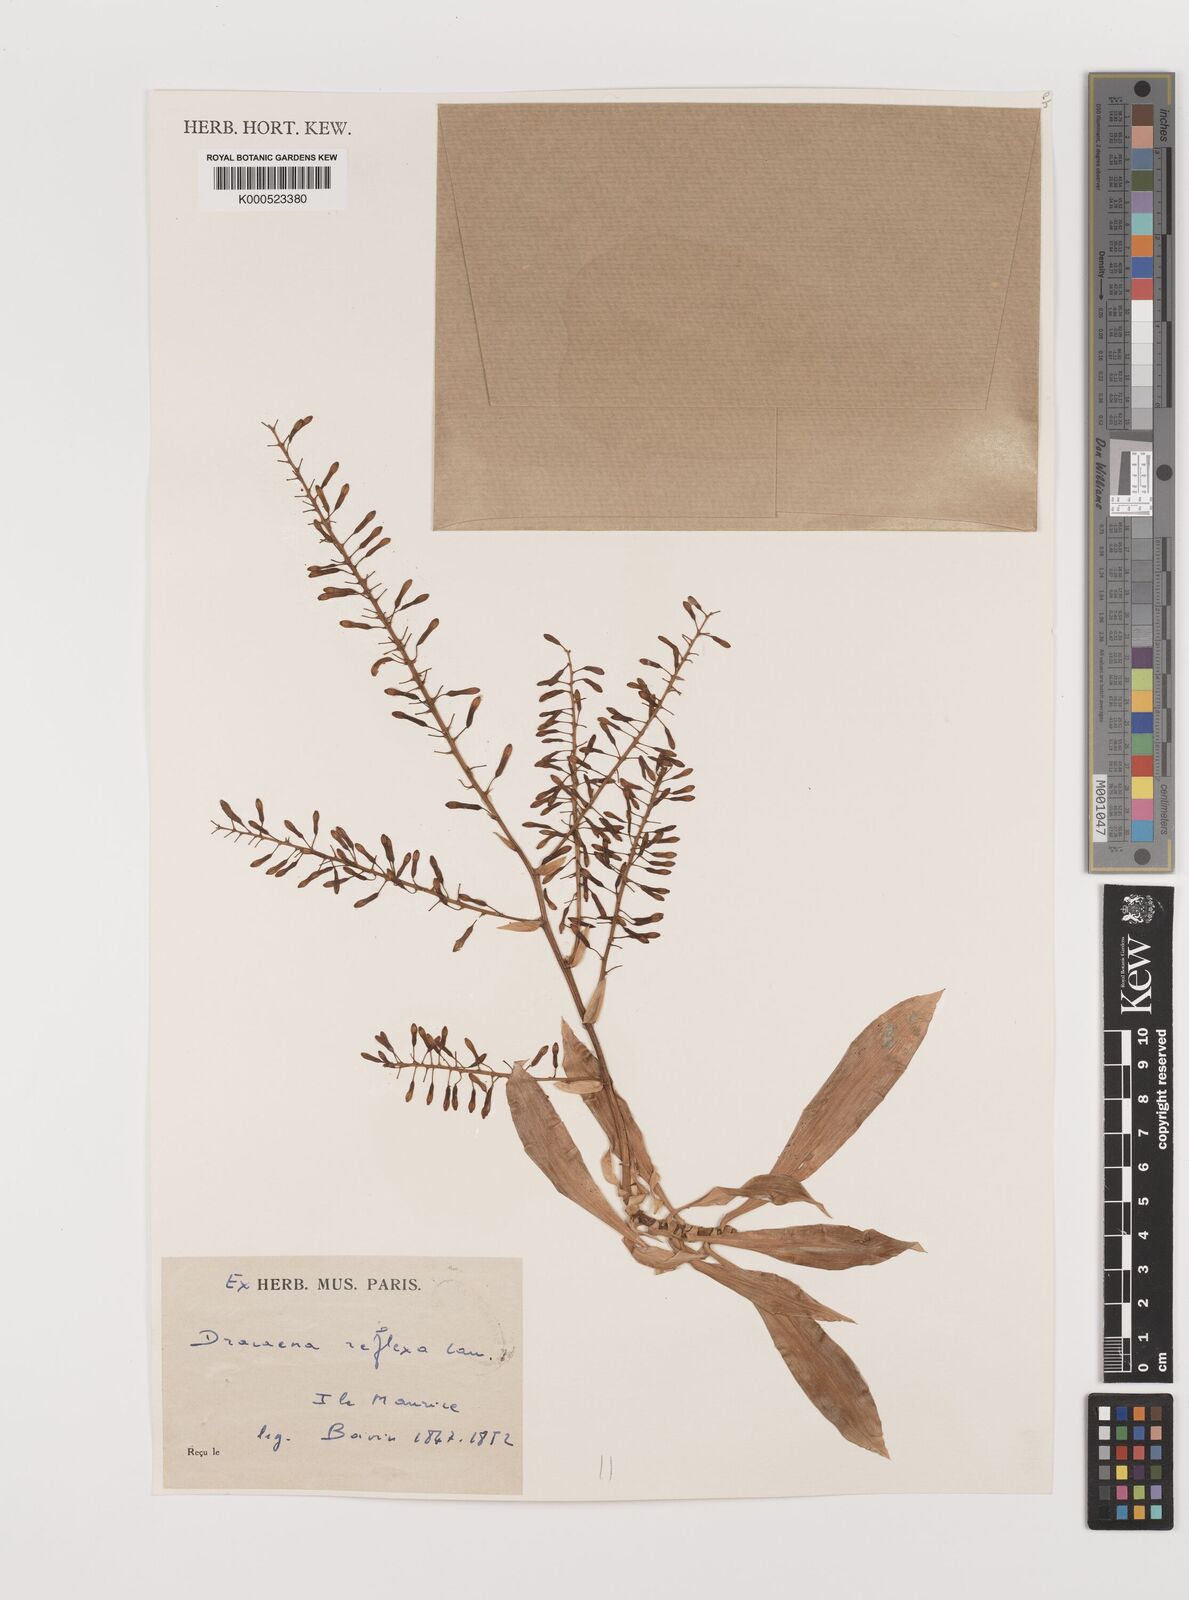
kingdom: Plantae
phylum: Tracheophyta
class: Liliopsida
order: Asparagales
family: Asparagaceae
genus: Dracaena
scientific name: Dracaena reflexa
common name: Song-of-india
